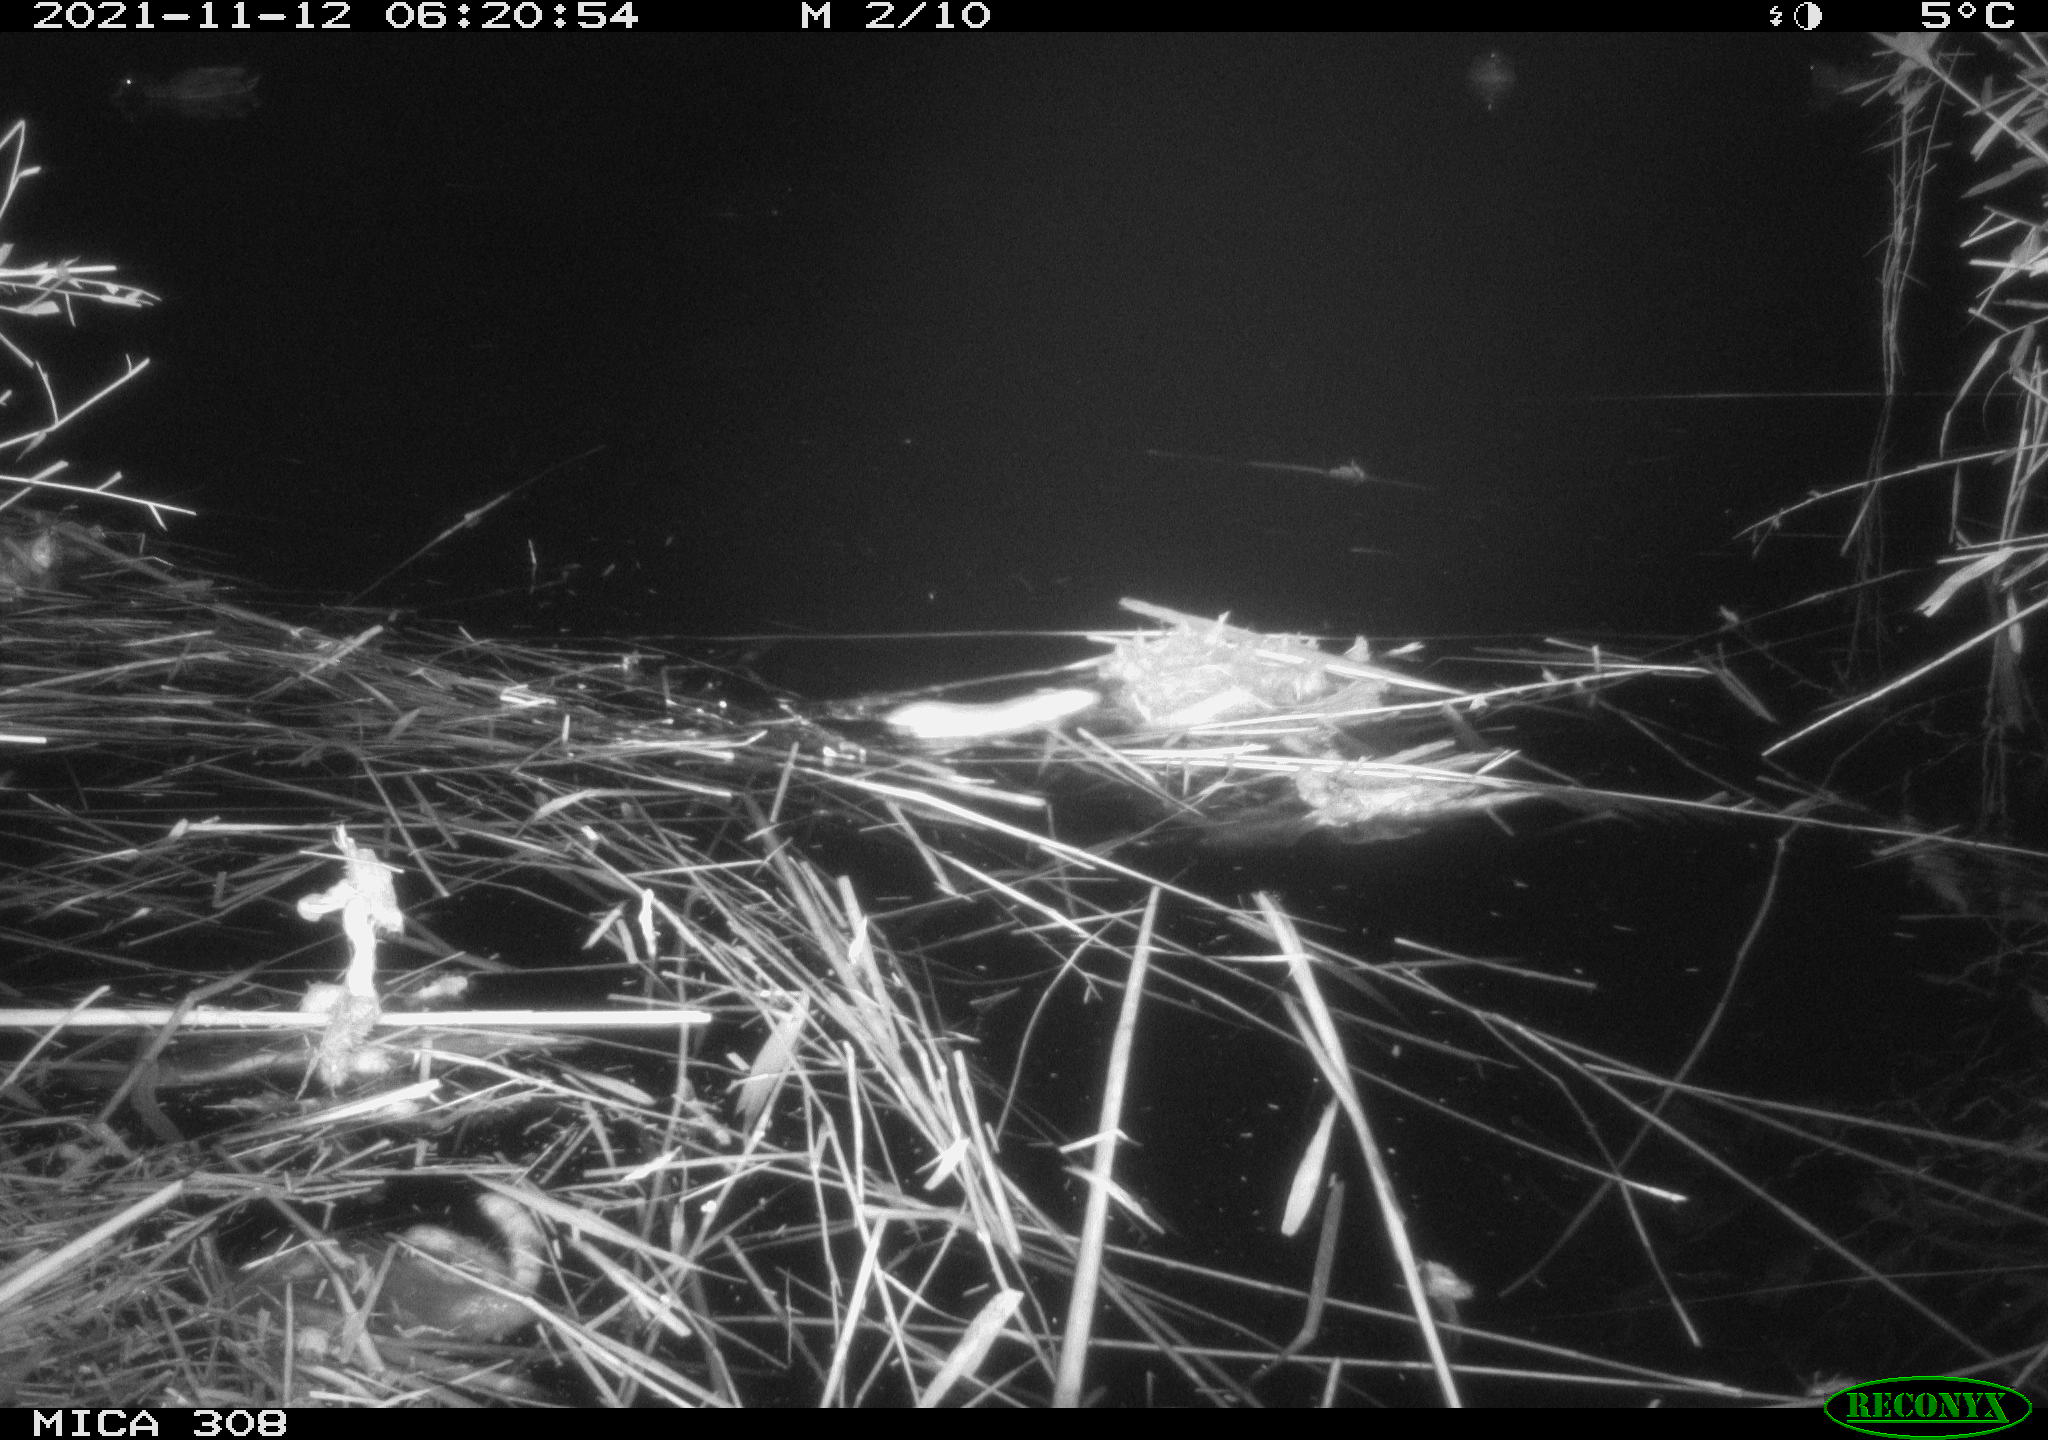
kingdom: Animalia
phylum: Chordata
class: Mammalia
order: Rodentia
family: Muridae
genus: Rattus
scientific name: Rattus norvegicus
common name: Brown rat
